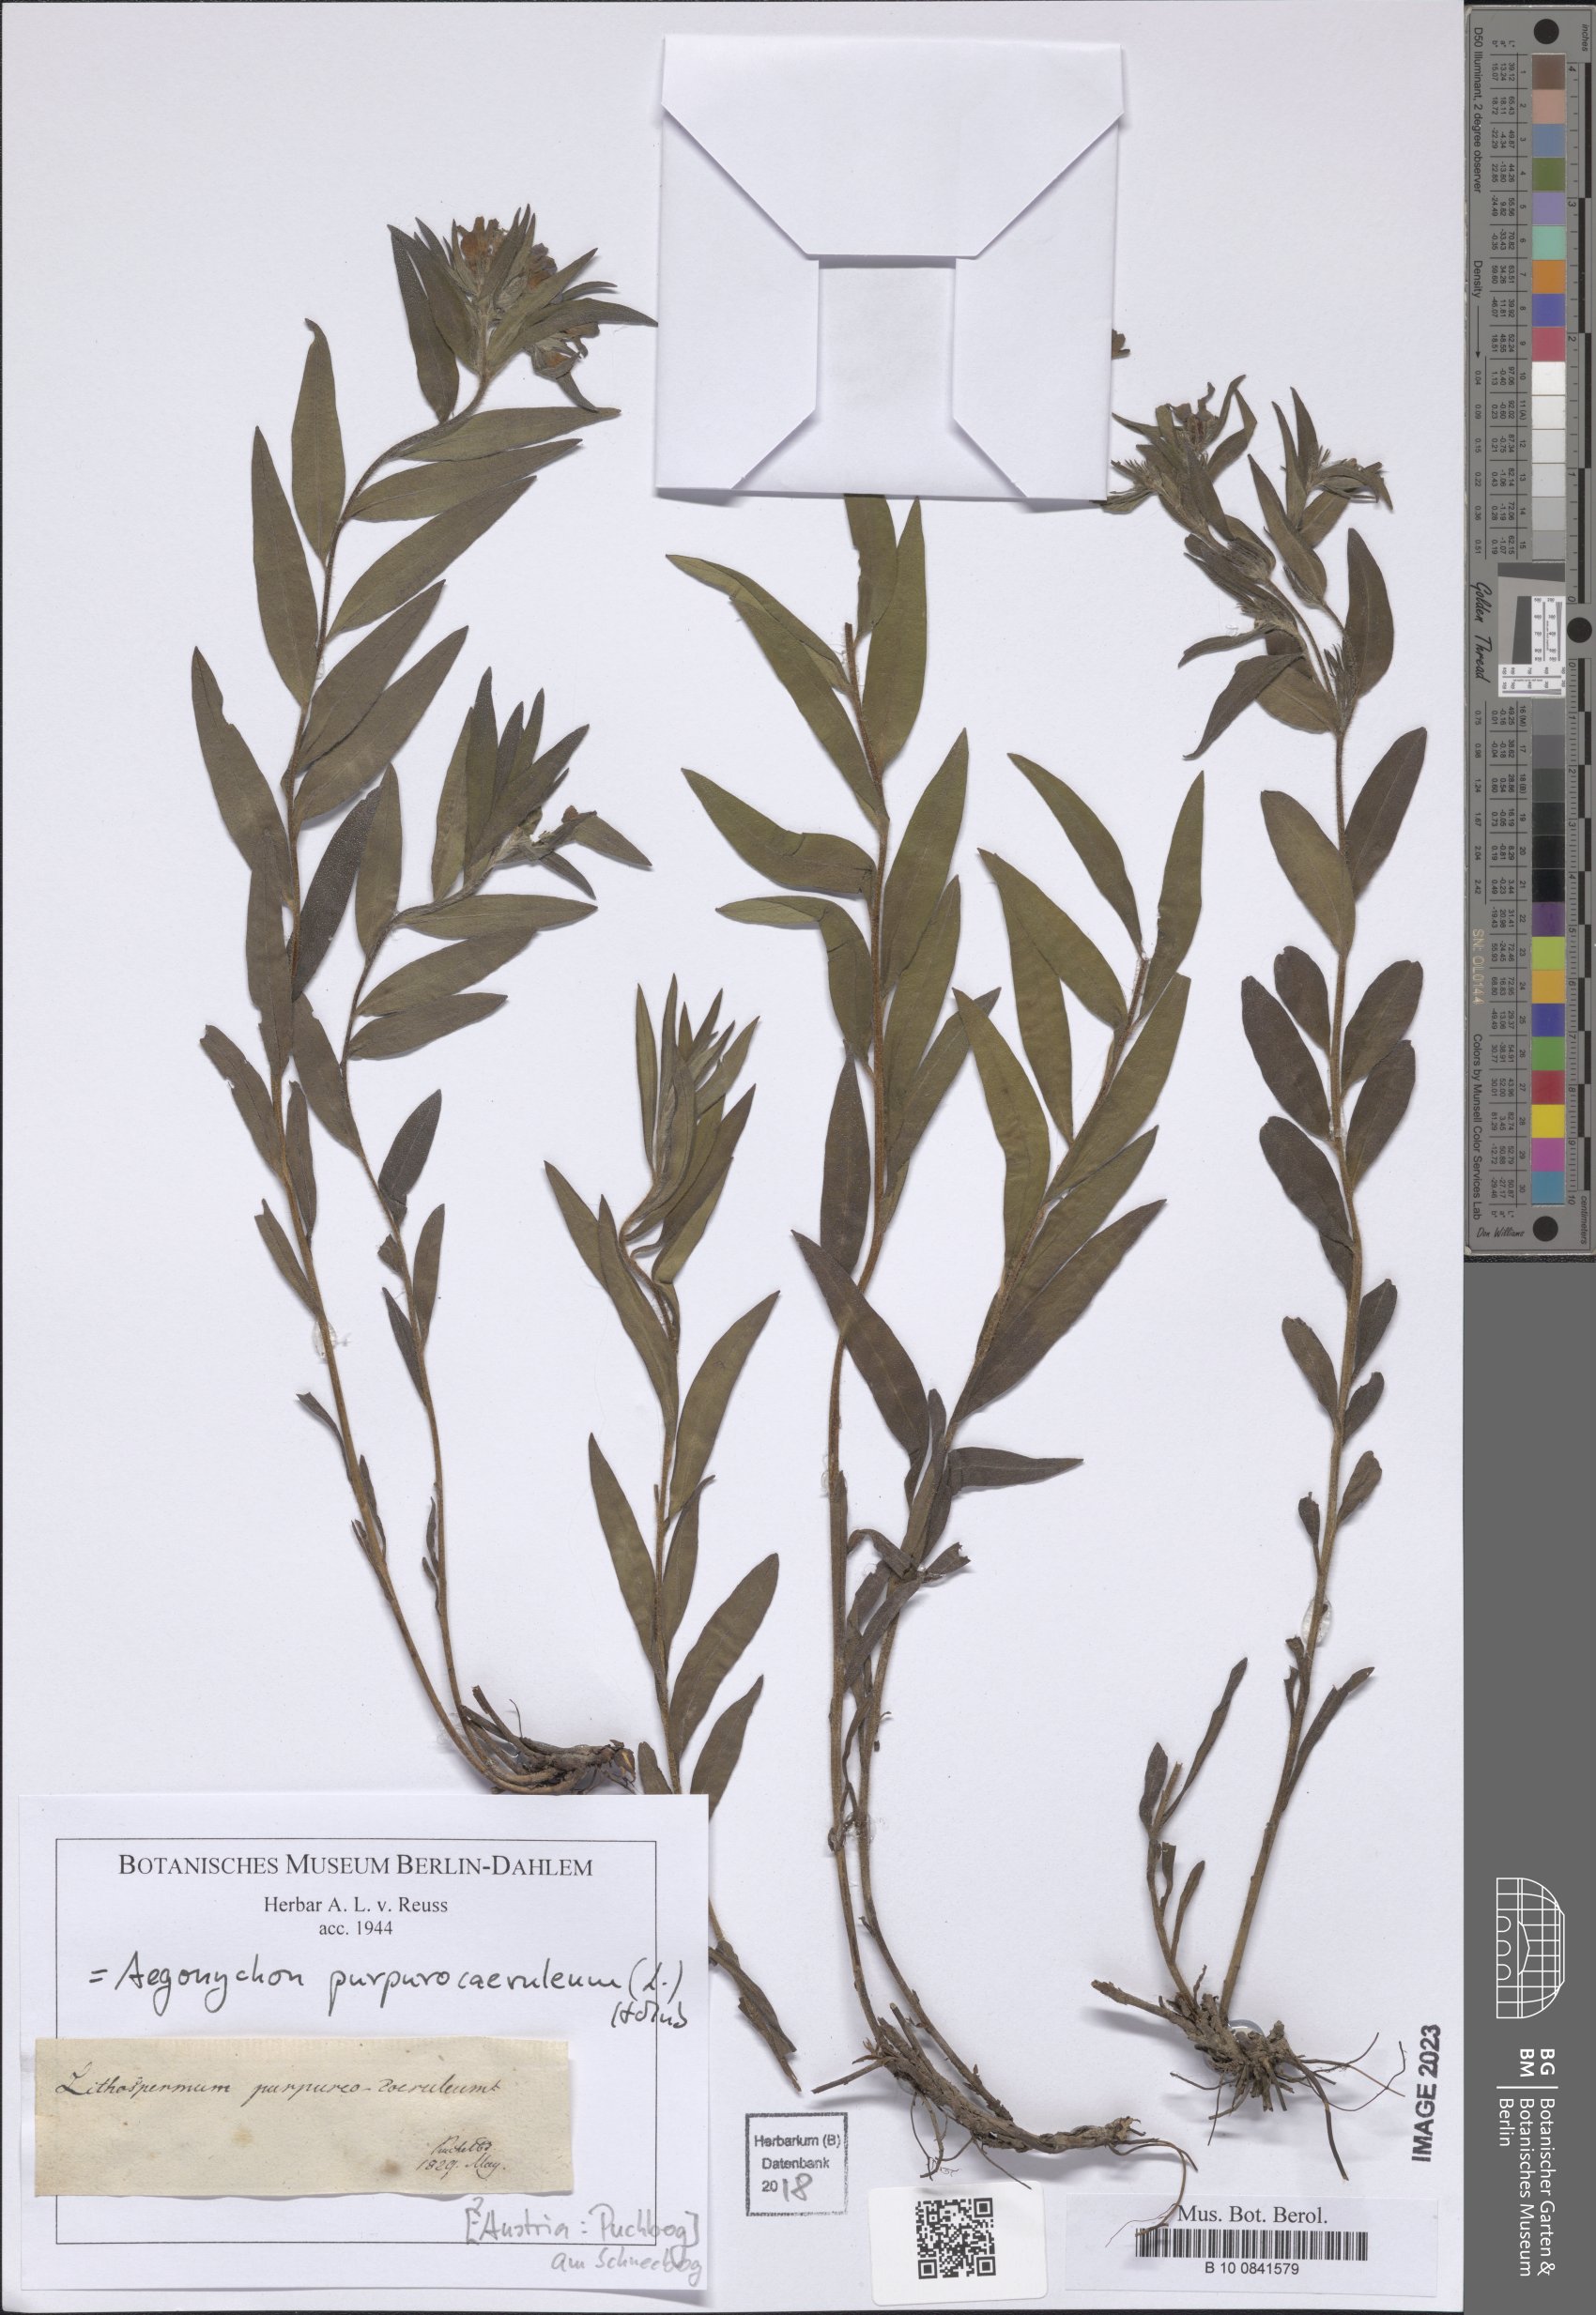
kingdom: Plantae
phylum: Tracheophyta
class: Magnoliopsida
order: Boraginales
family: Boraginaceae
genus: Aegonychon
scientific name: Aegonychon purpurocaeruleum
